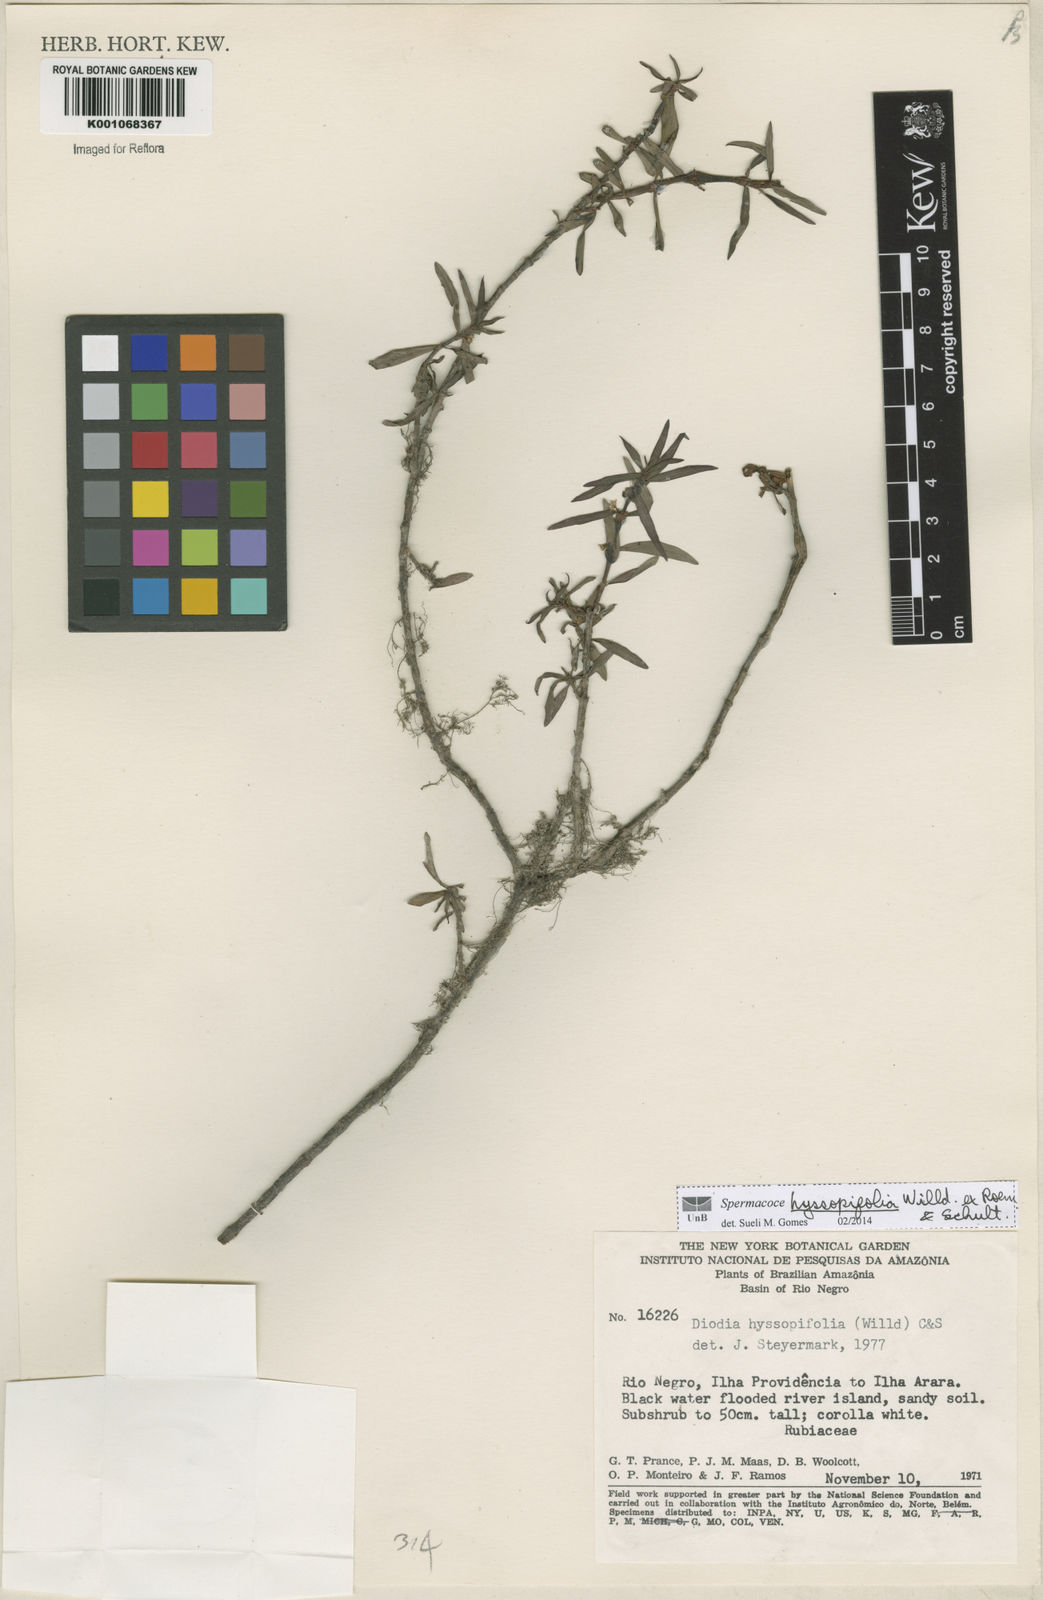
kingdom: Plantae
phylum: Tracheophyta
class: Magnoliopsida
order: Gentianales
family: Rubiaceae
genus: Spermacoce
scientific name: Spermacoce
